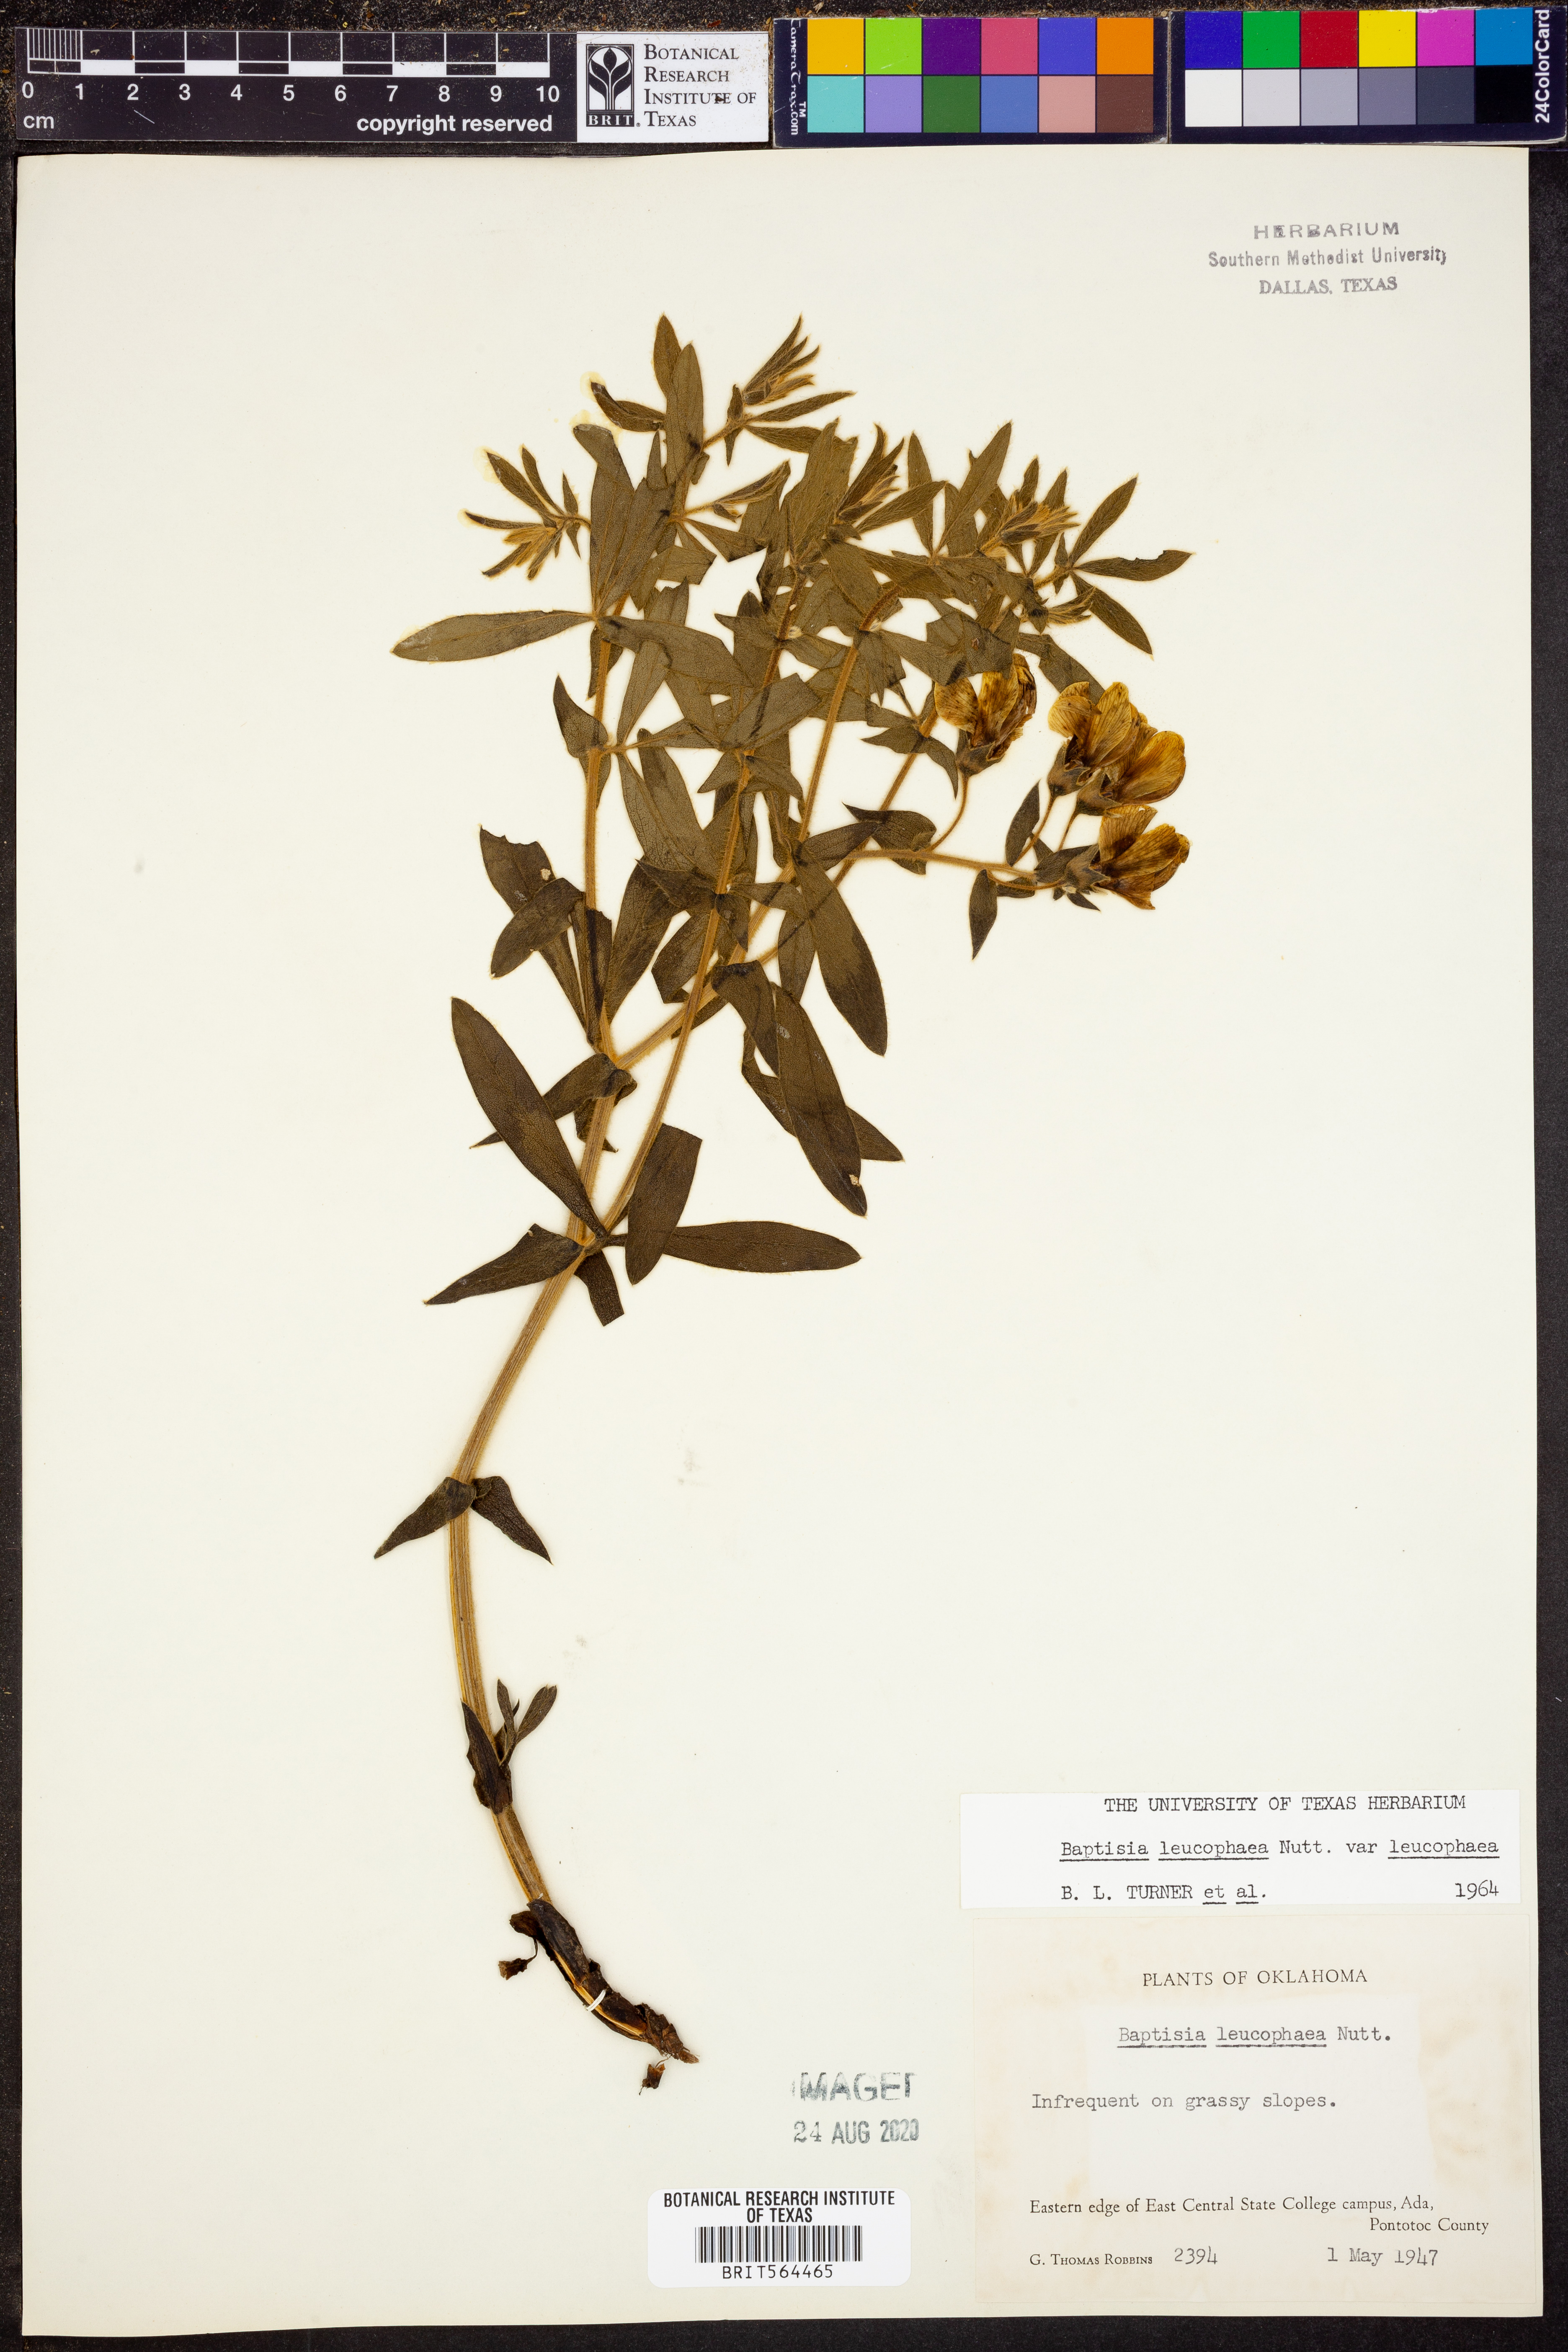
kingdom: Plantae
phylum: Tracheophyta
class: Magnoliopsida
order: Fabales
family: Fabaceae
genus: Baptisia
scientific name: Baptisia bracteata
